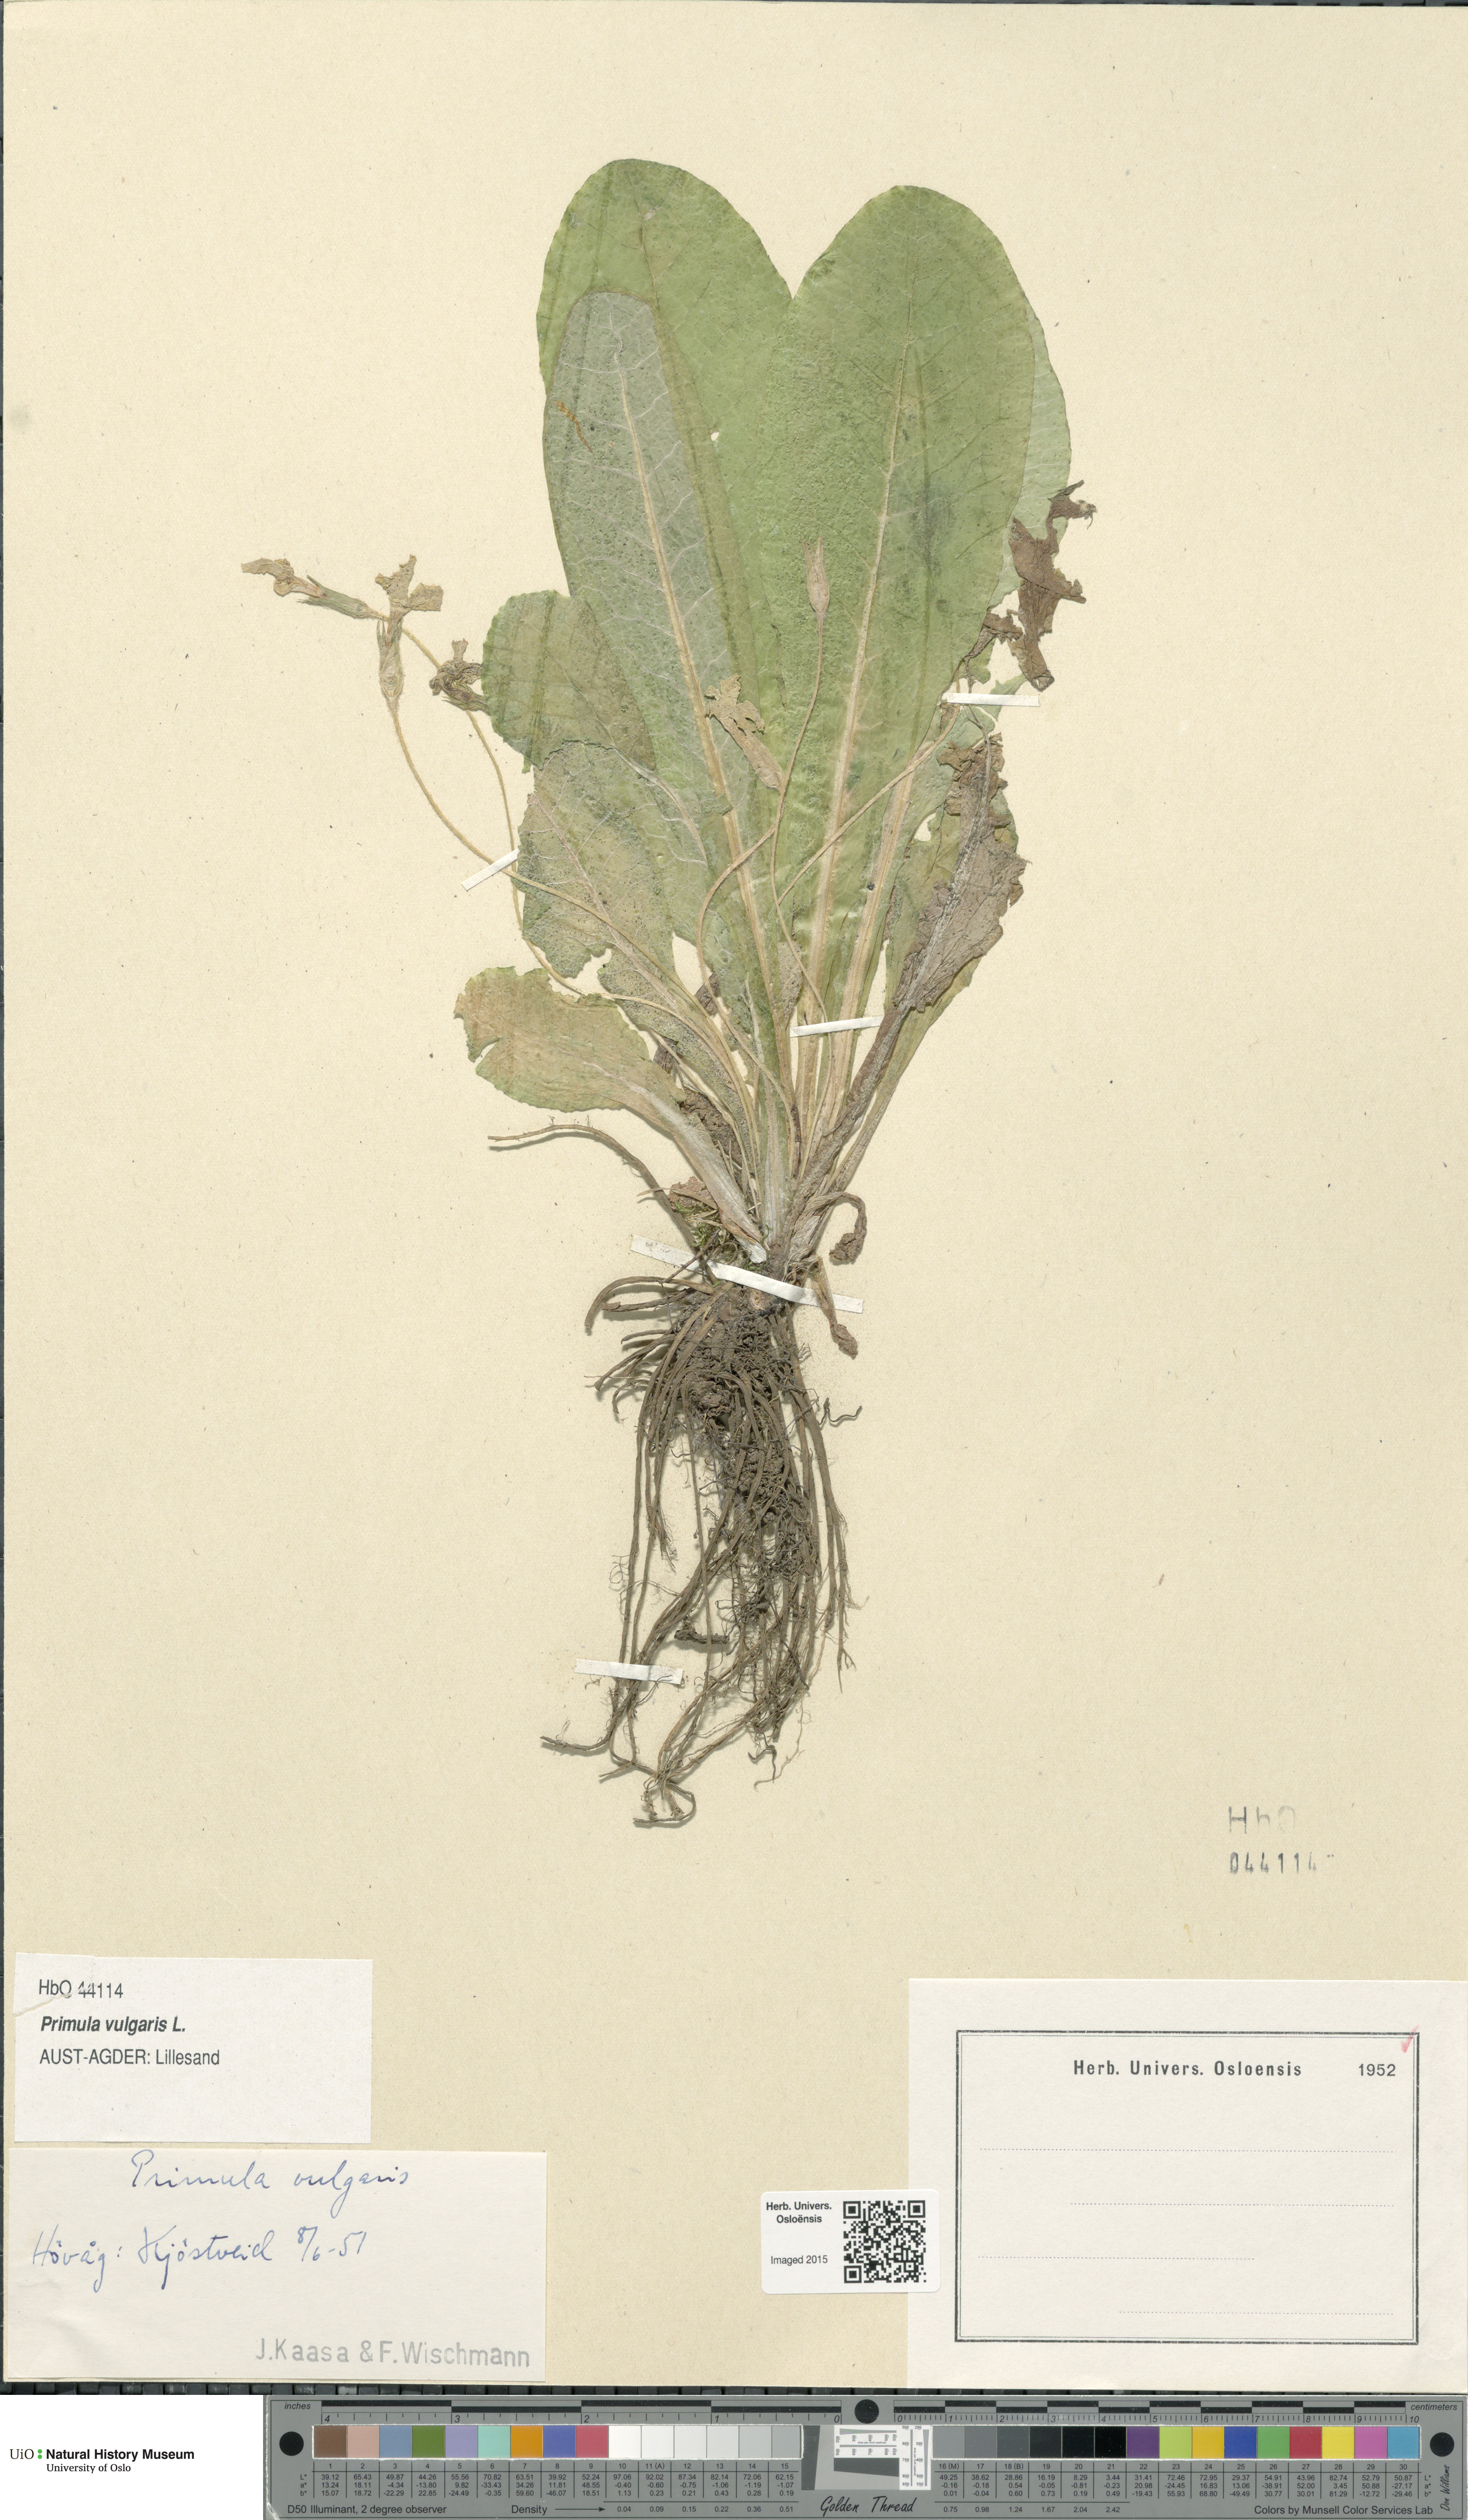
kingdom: Plantae
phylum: Tracheophyta
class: Magnoliopsida
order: Ericales
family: Primulaceae
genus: Primula
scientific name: Primula vulgaris
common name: Primrose
